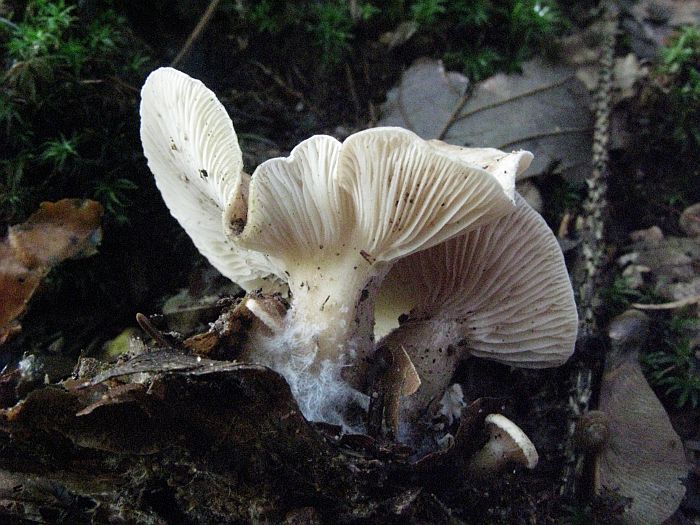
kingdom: Fungi
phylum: Basidiomycota
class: Agaricomycetes
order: Agaricales
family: Tricholomataceae
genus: Infundibulicybe
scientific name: Infundibulicybe gibba
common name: almindelig tragthat
